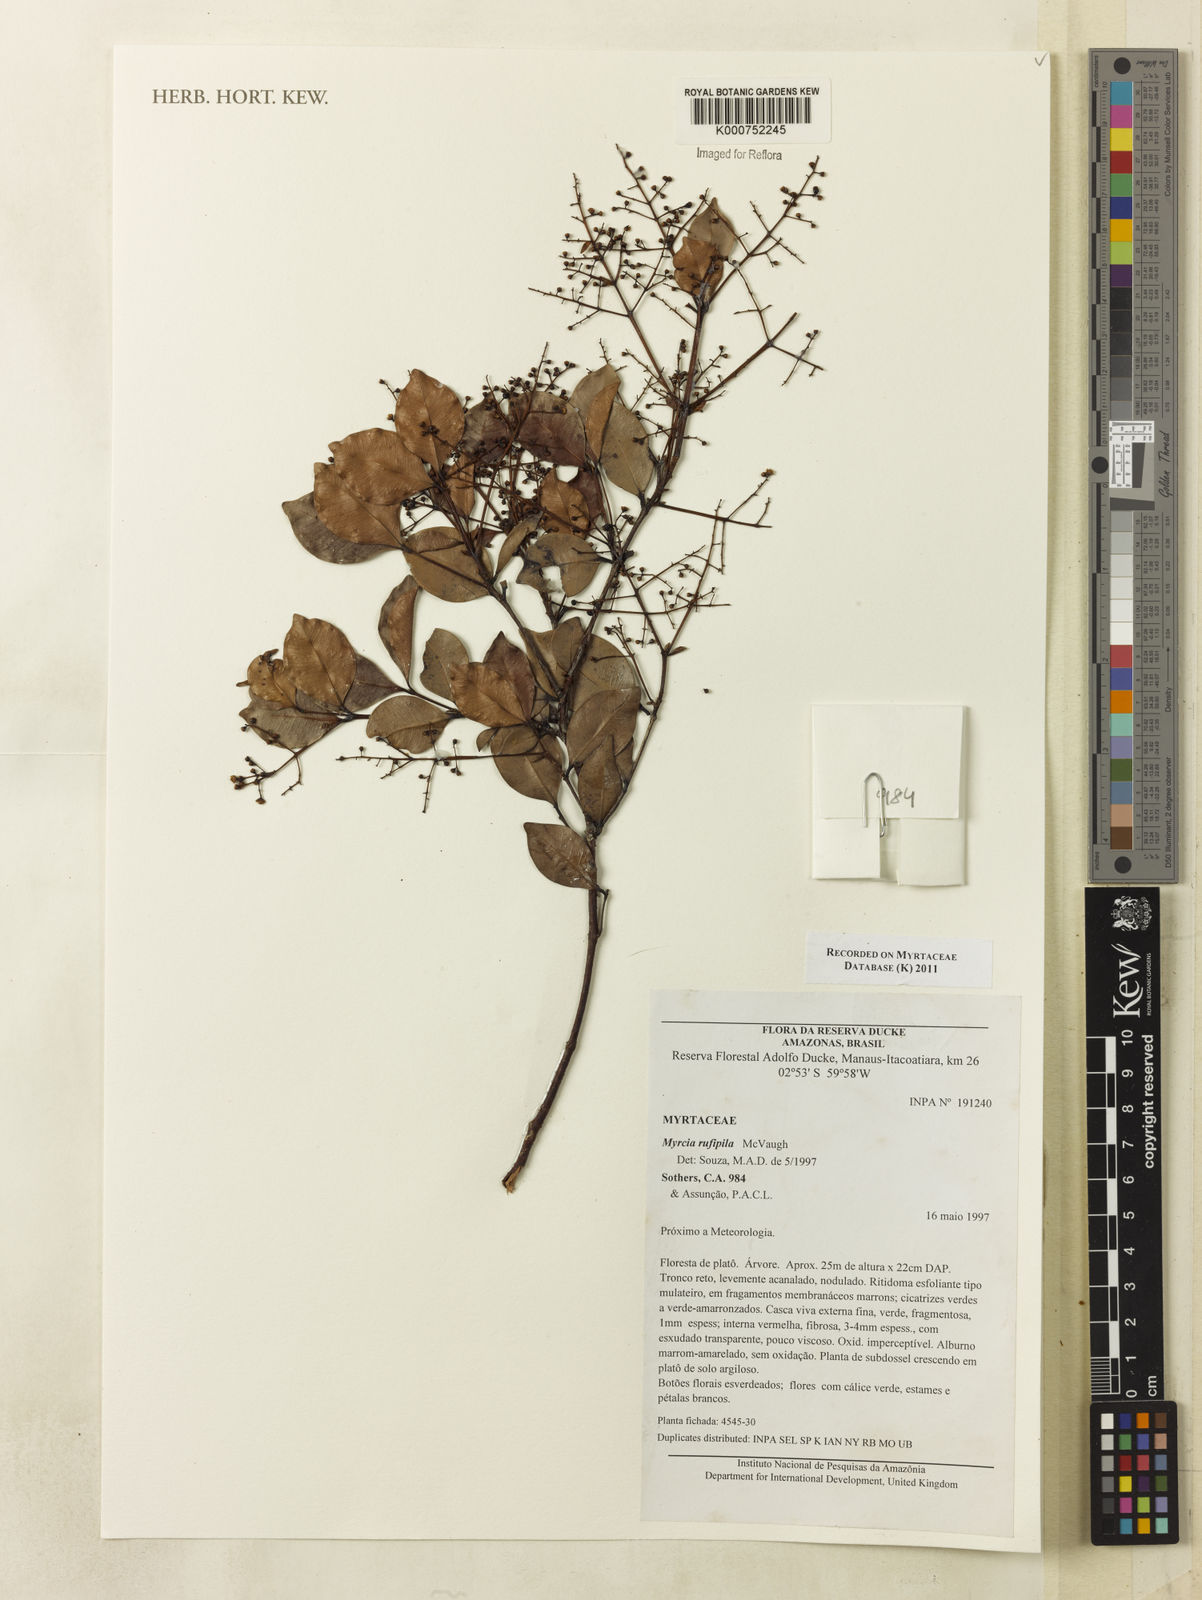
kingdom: Plantae
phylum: Tracheophyta
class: Magnoliopsida
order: Myrtales
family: Myrtaceae
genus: Myrcia
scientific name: Myrcia rufipila
